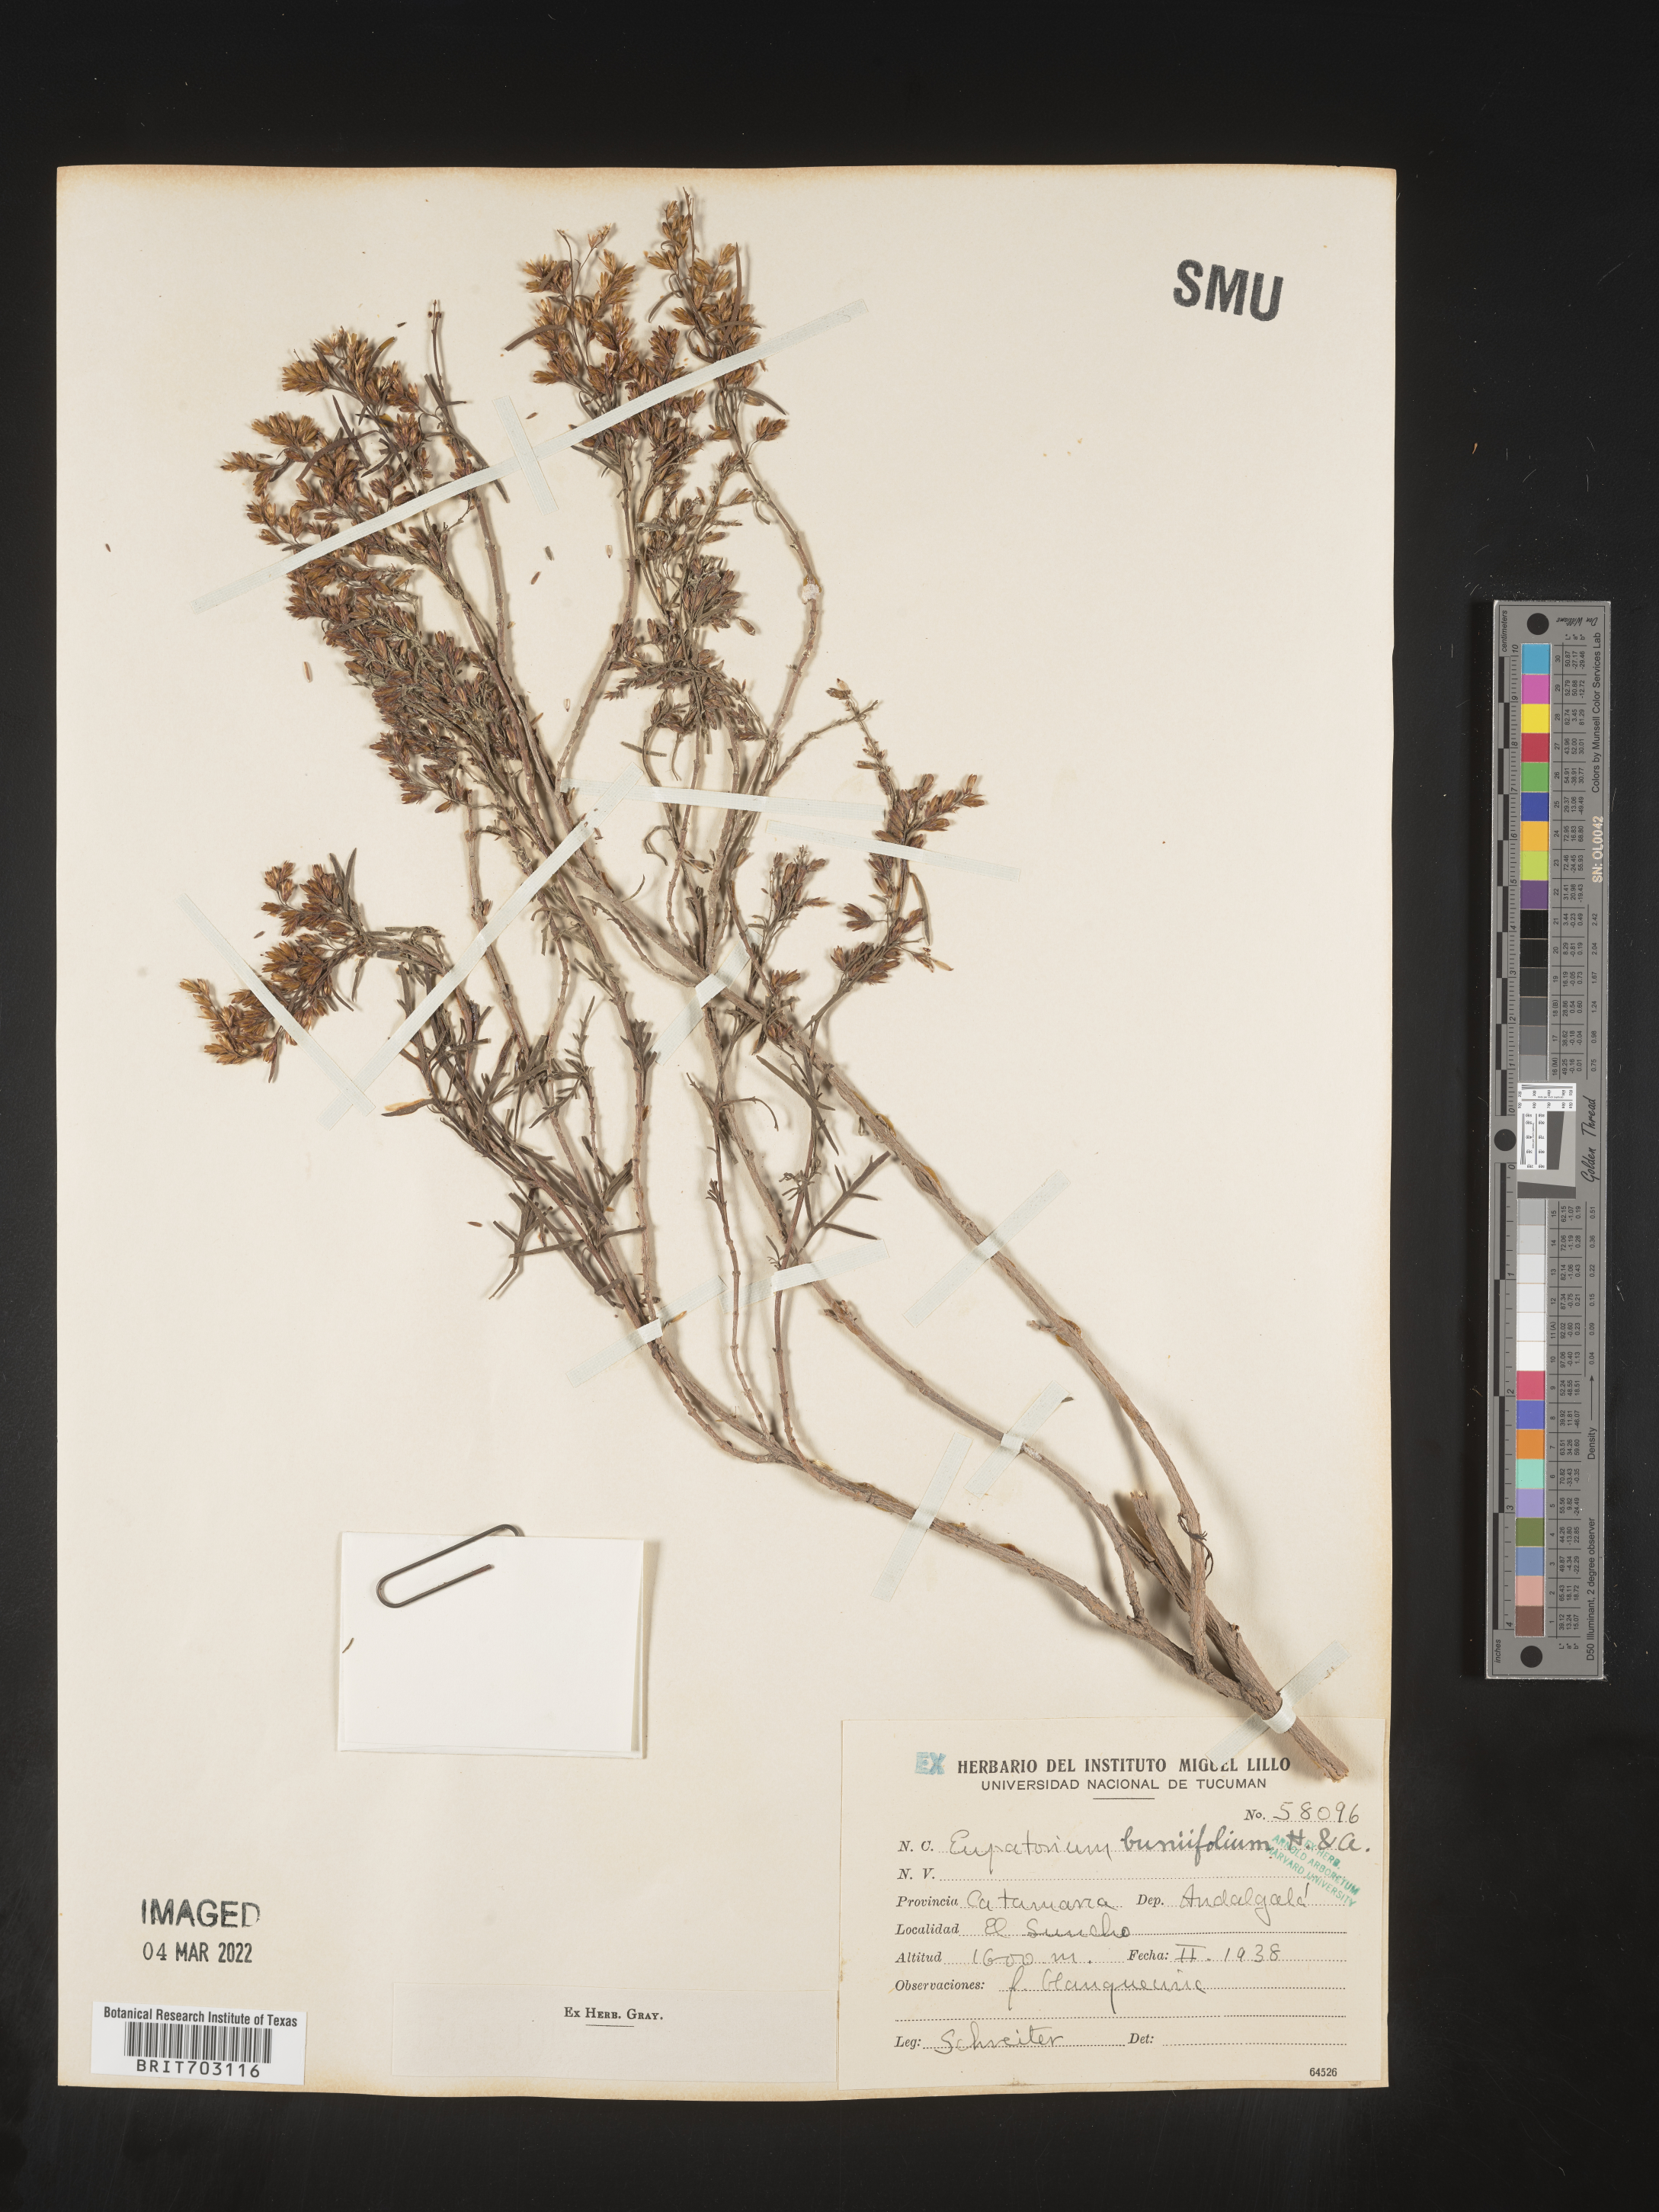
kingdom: Plantae
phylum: Tracheophyta
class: Magnoliopsida
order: Asterales
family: Asteraceae
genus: Eupatorium
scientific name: Eupatorium
